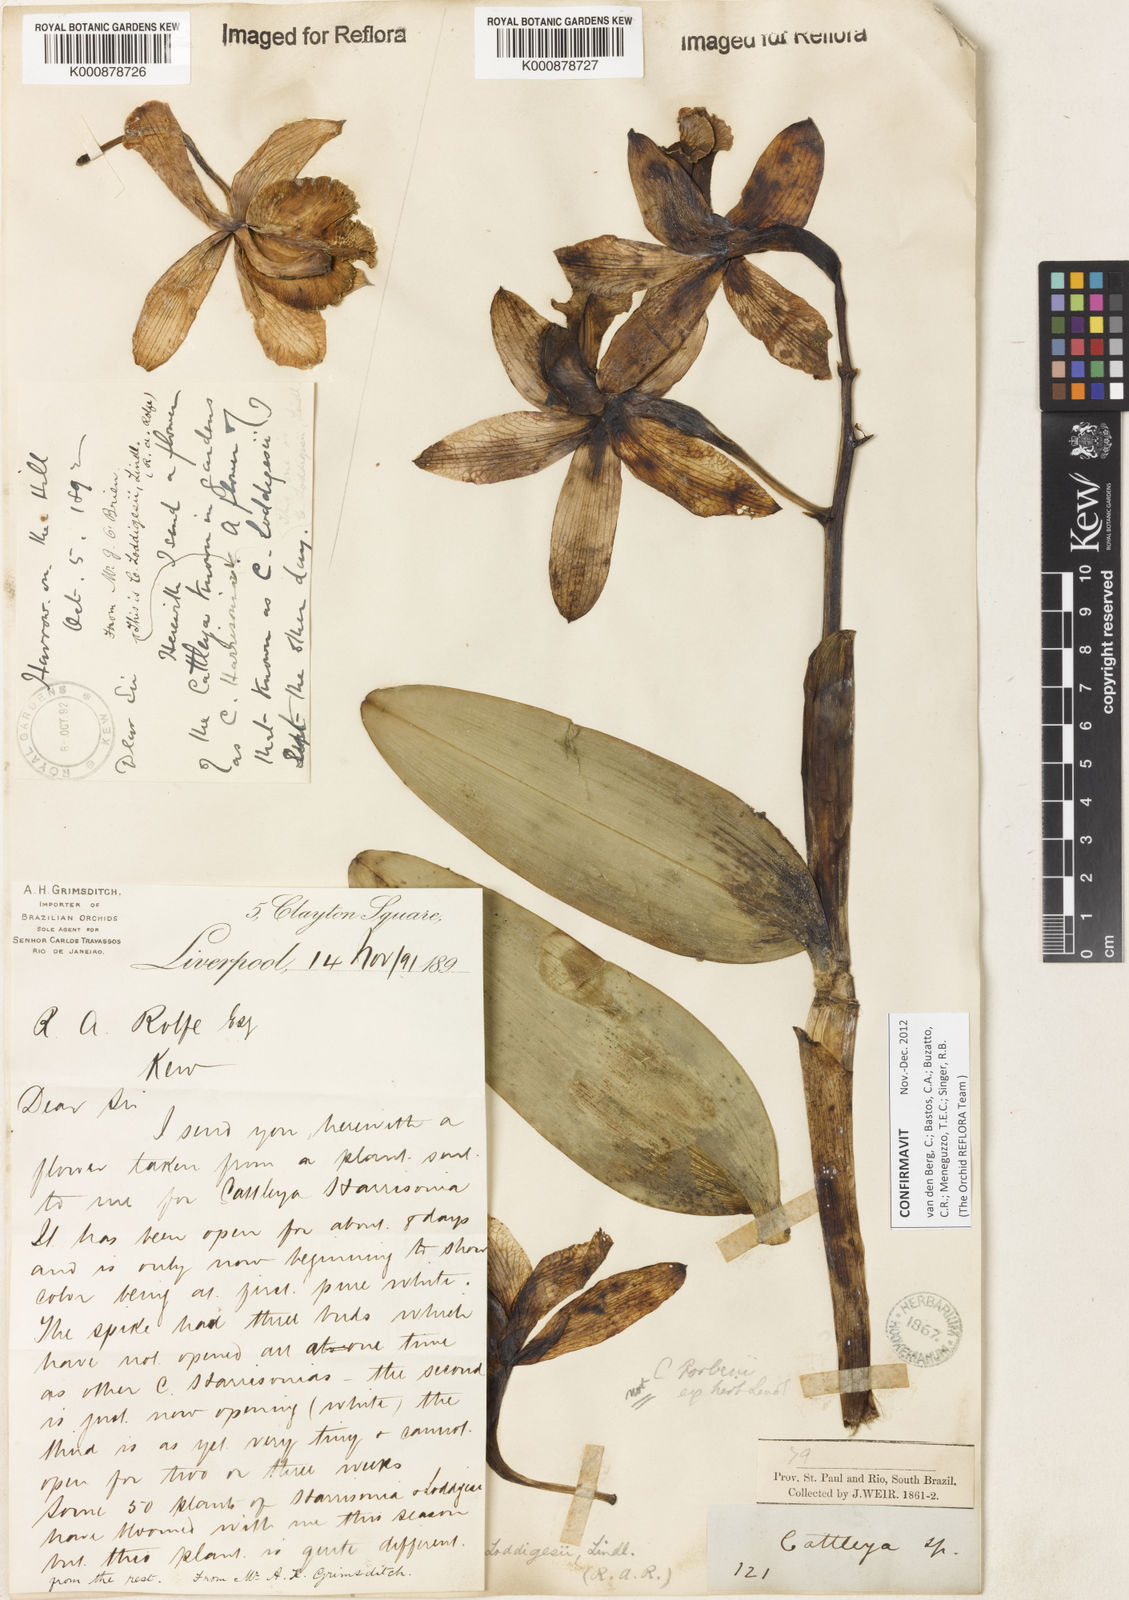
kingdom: Plantae
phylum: Tracheophyta
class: Liliopsida
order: Asparagales
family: Orchidaceae
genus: Cattleya
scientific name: Cattleya loddigesii
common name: Loddiges's cattleya
